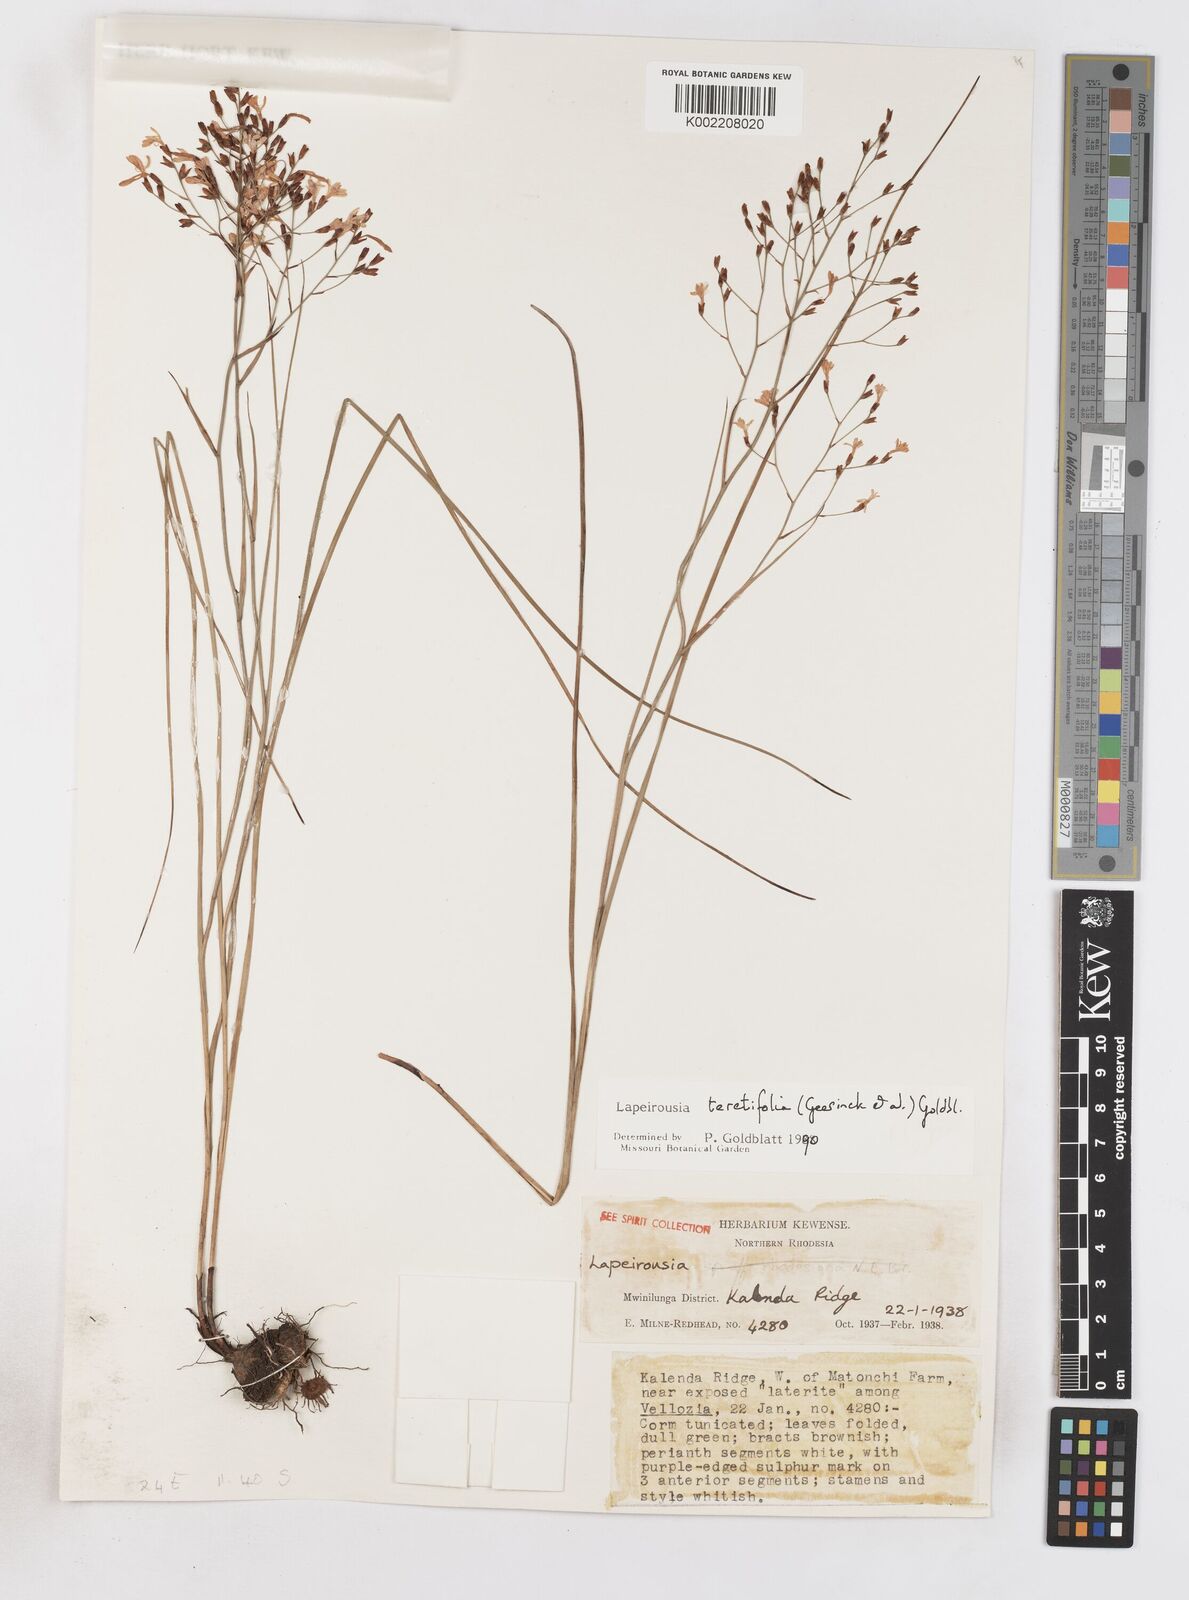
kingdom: Plantae
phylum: Tracheophyta
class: Liliopsida
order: Asparagales
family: Iridaceae
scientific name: Iridaceae
